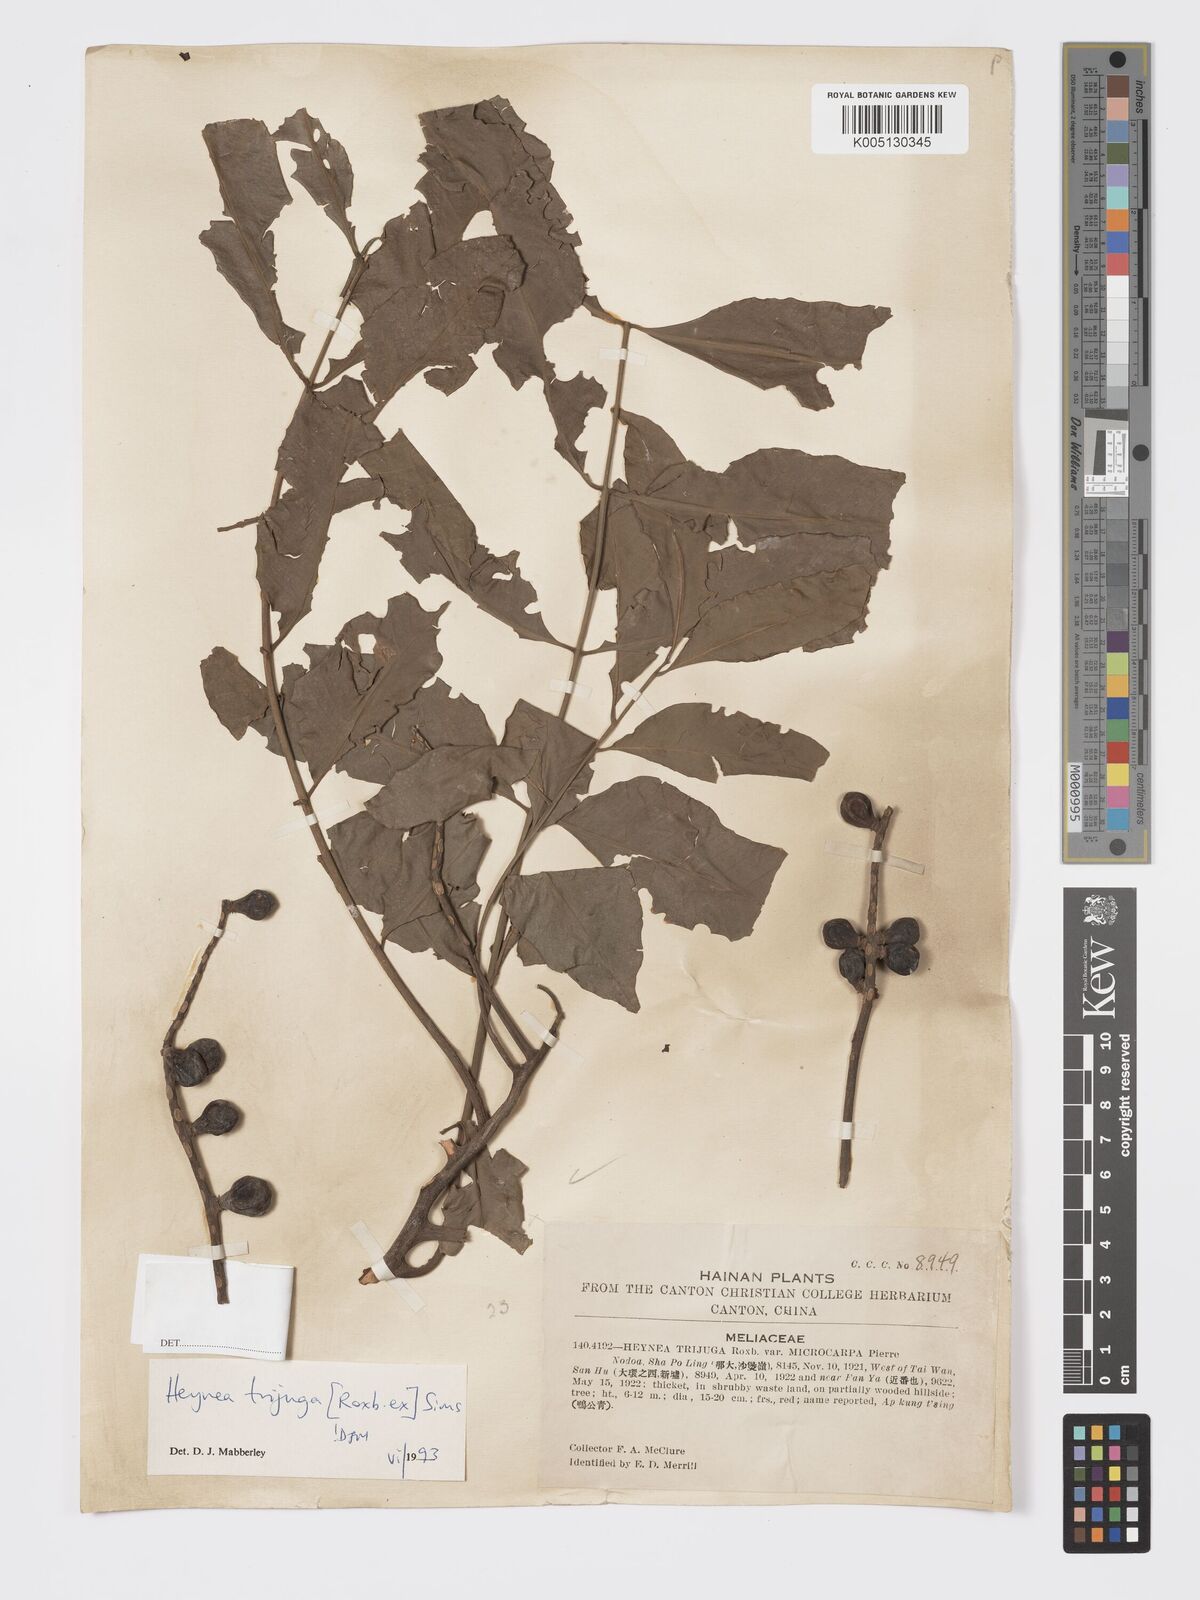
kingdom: Plantae
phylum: Tracheophyta
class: Magnoliopsida
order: Sapindales
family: Meliaceae
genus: Heynea
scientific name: Heynea trijuga
